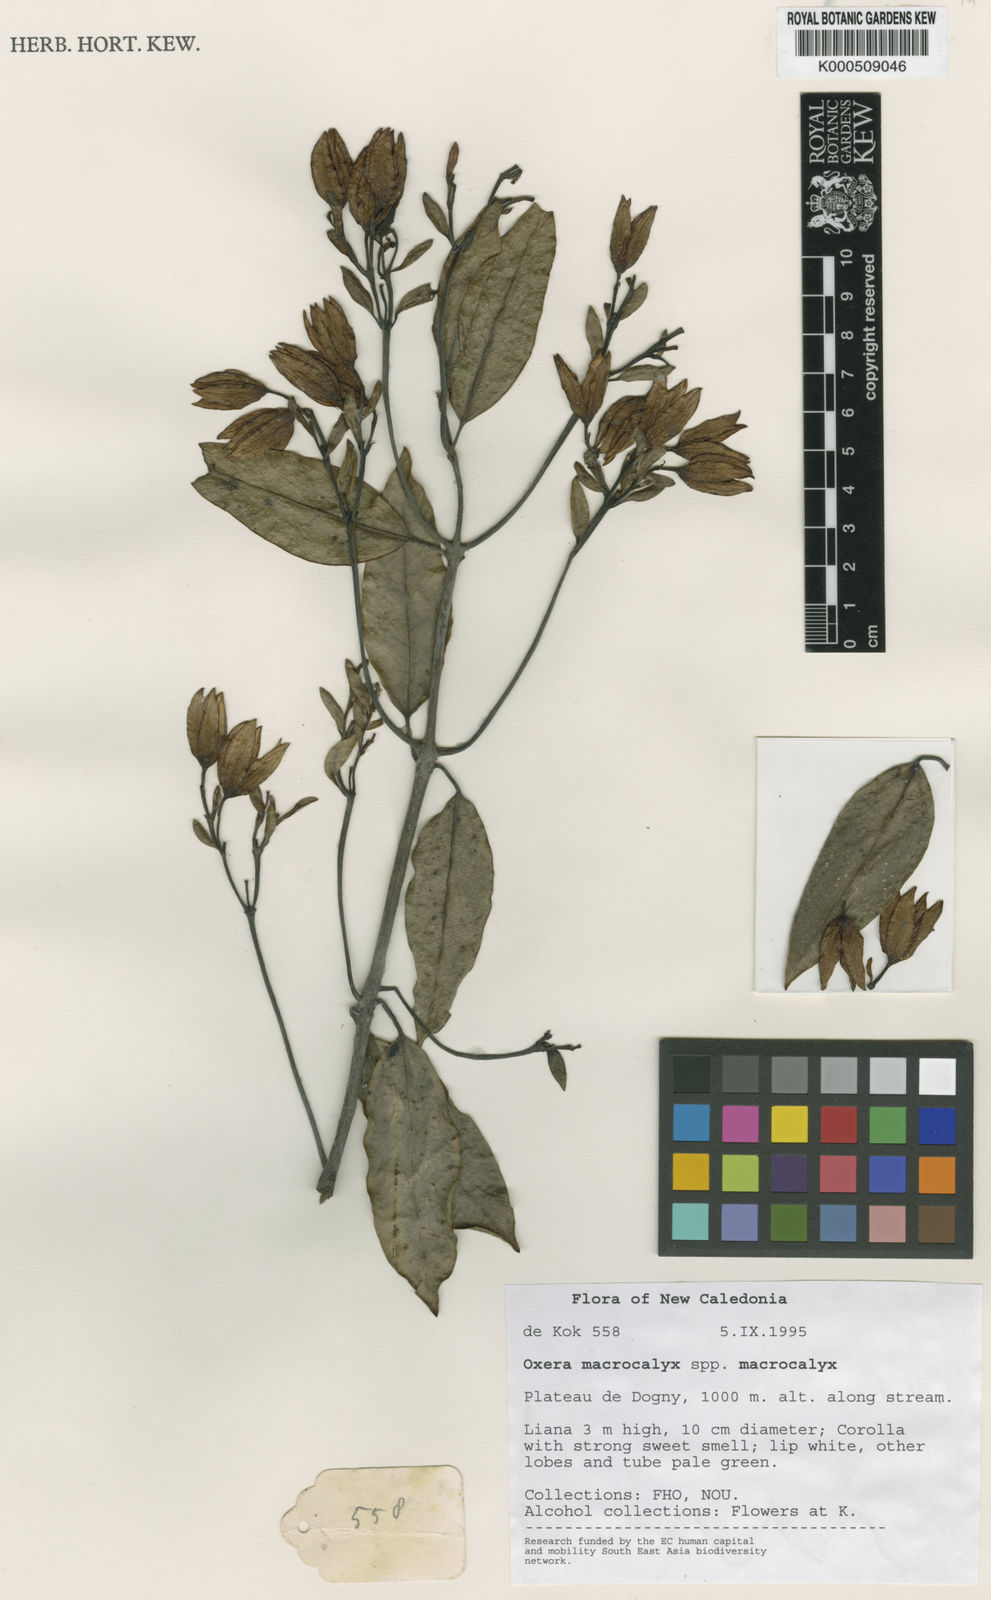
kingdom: Plantae
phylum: Tracheophyta
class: Magnoliopsida
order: Lamiales
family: Lamiaceae
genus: Oxera
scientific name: Oxera neriifolia
